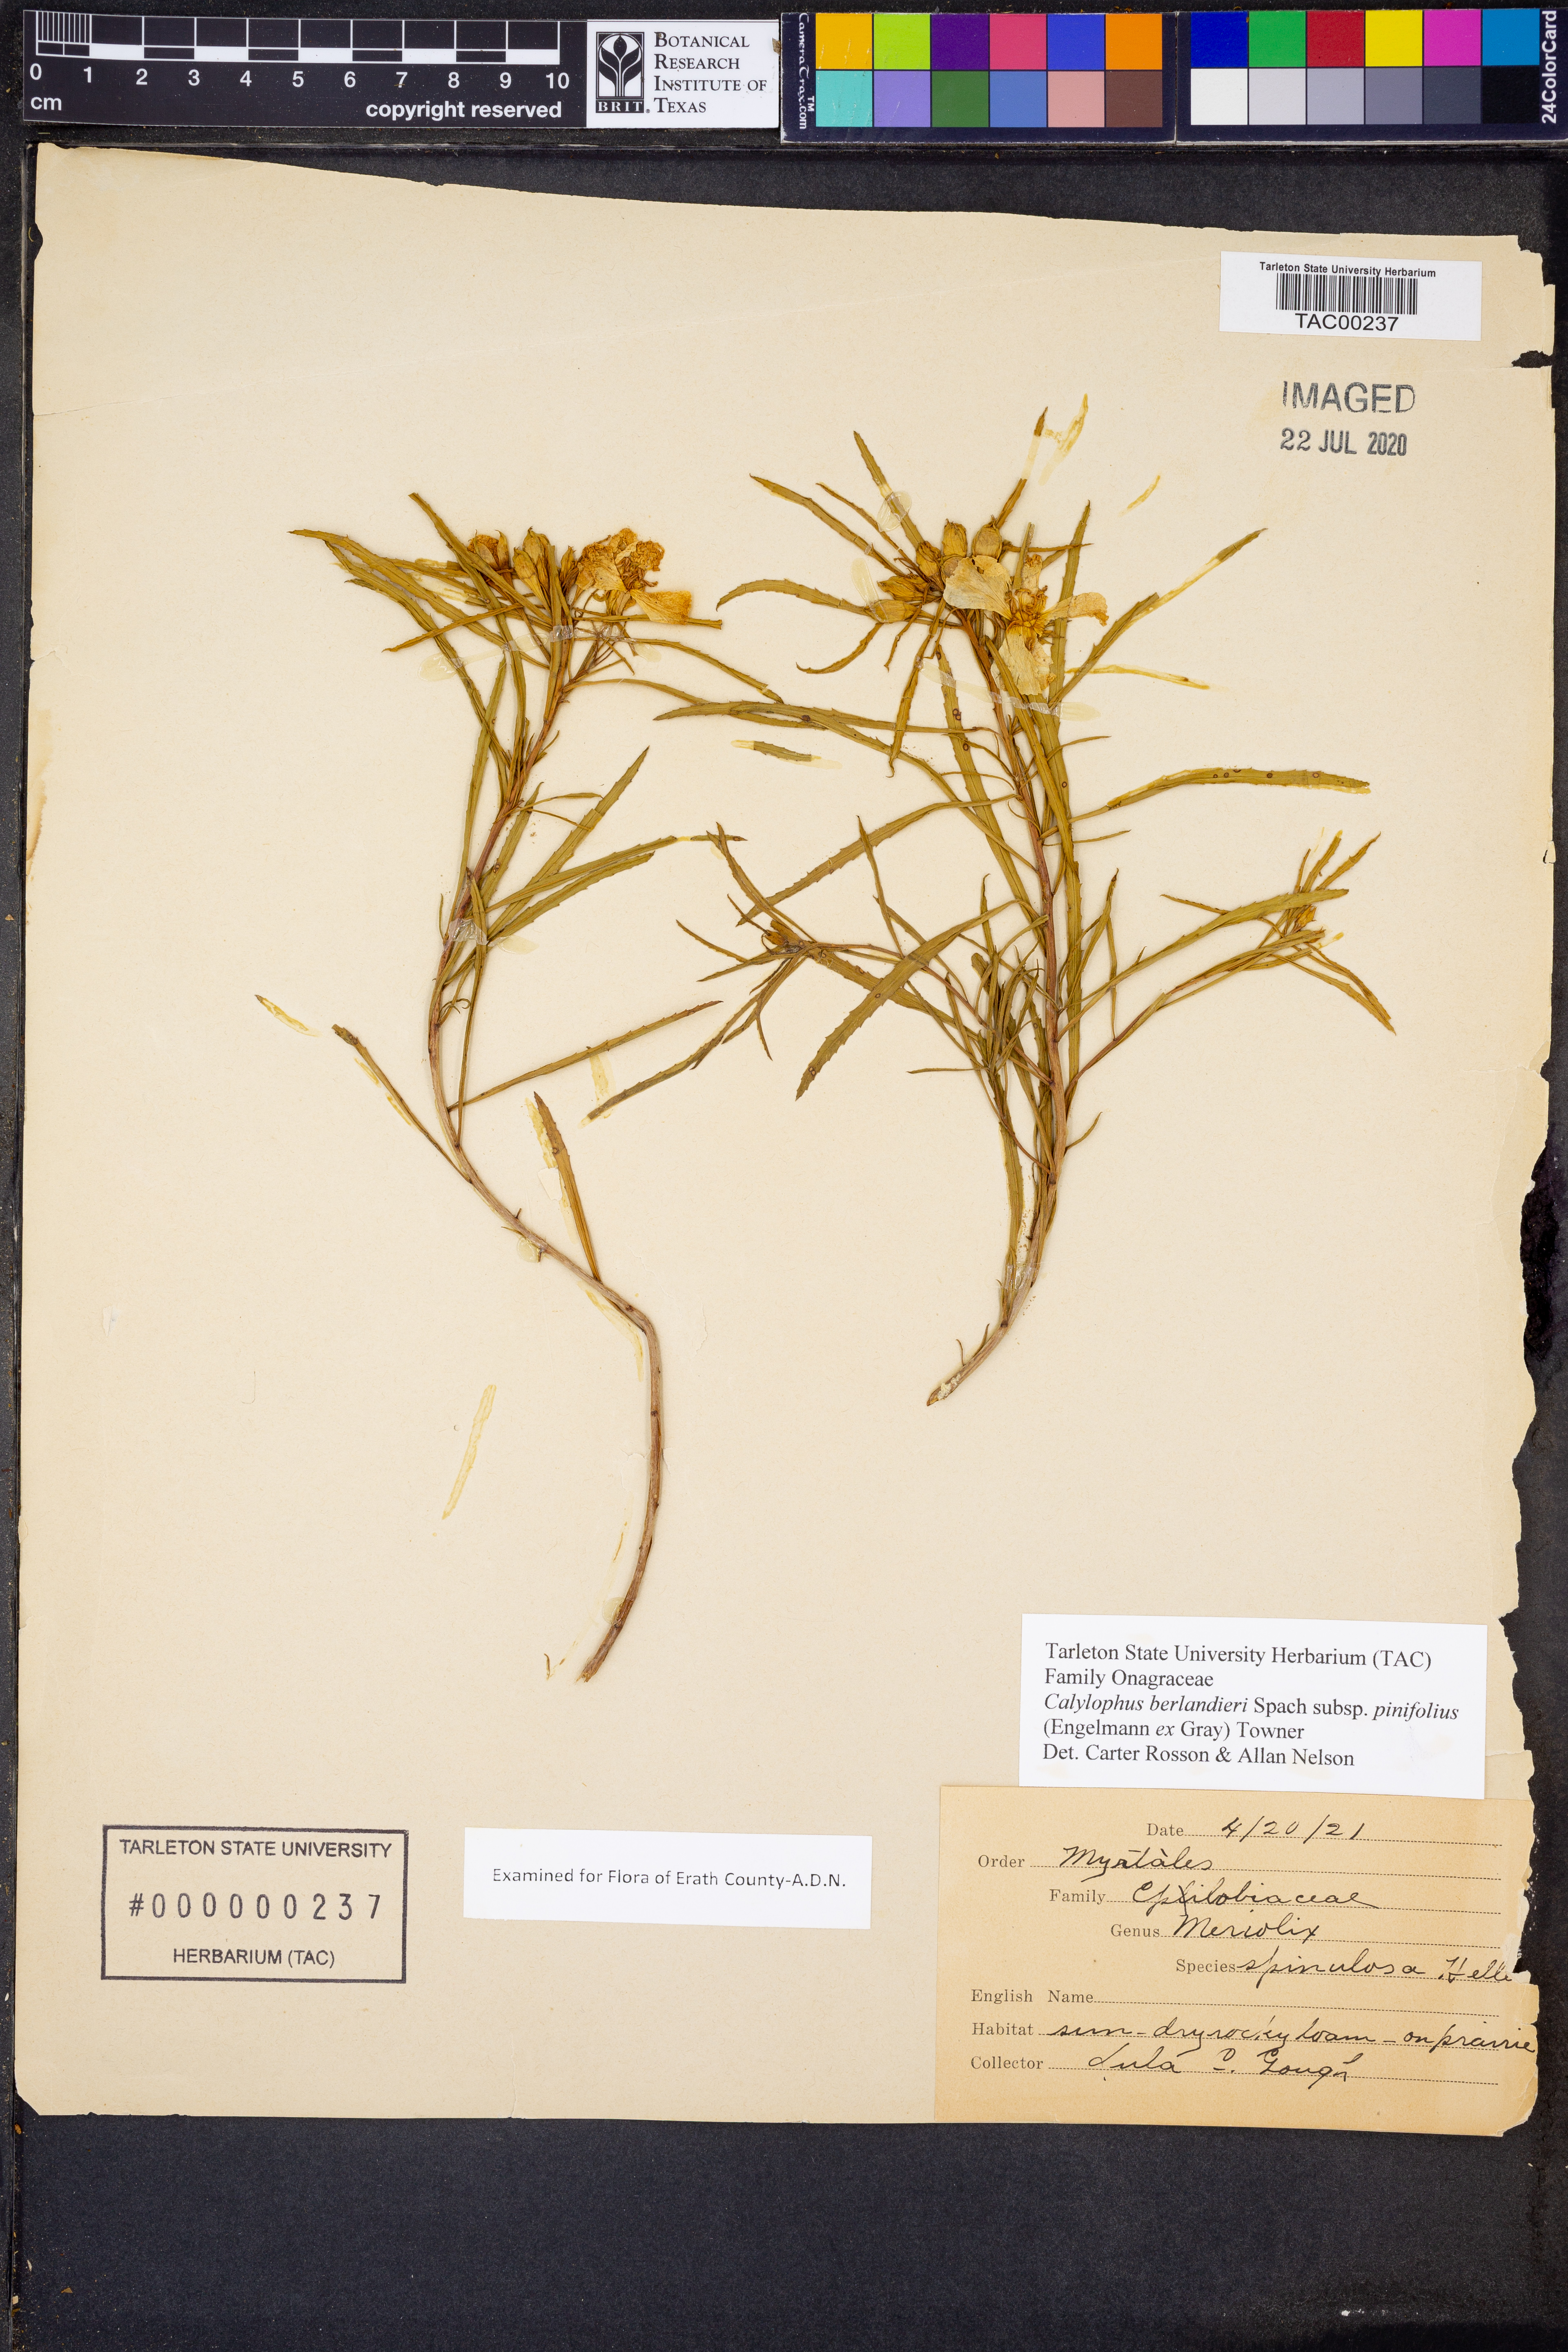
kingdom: Plantae
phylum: Tracheophyta
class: Magnoliopsida
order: Myrtales
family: Onagraceae
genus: Oenothera
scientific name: Oenothera capillifolia
